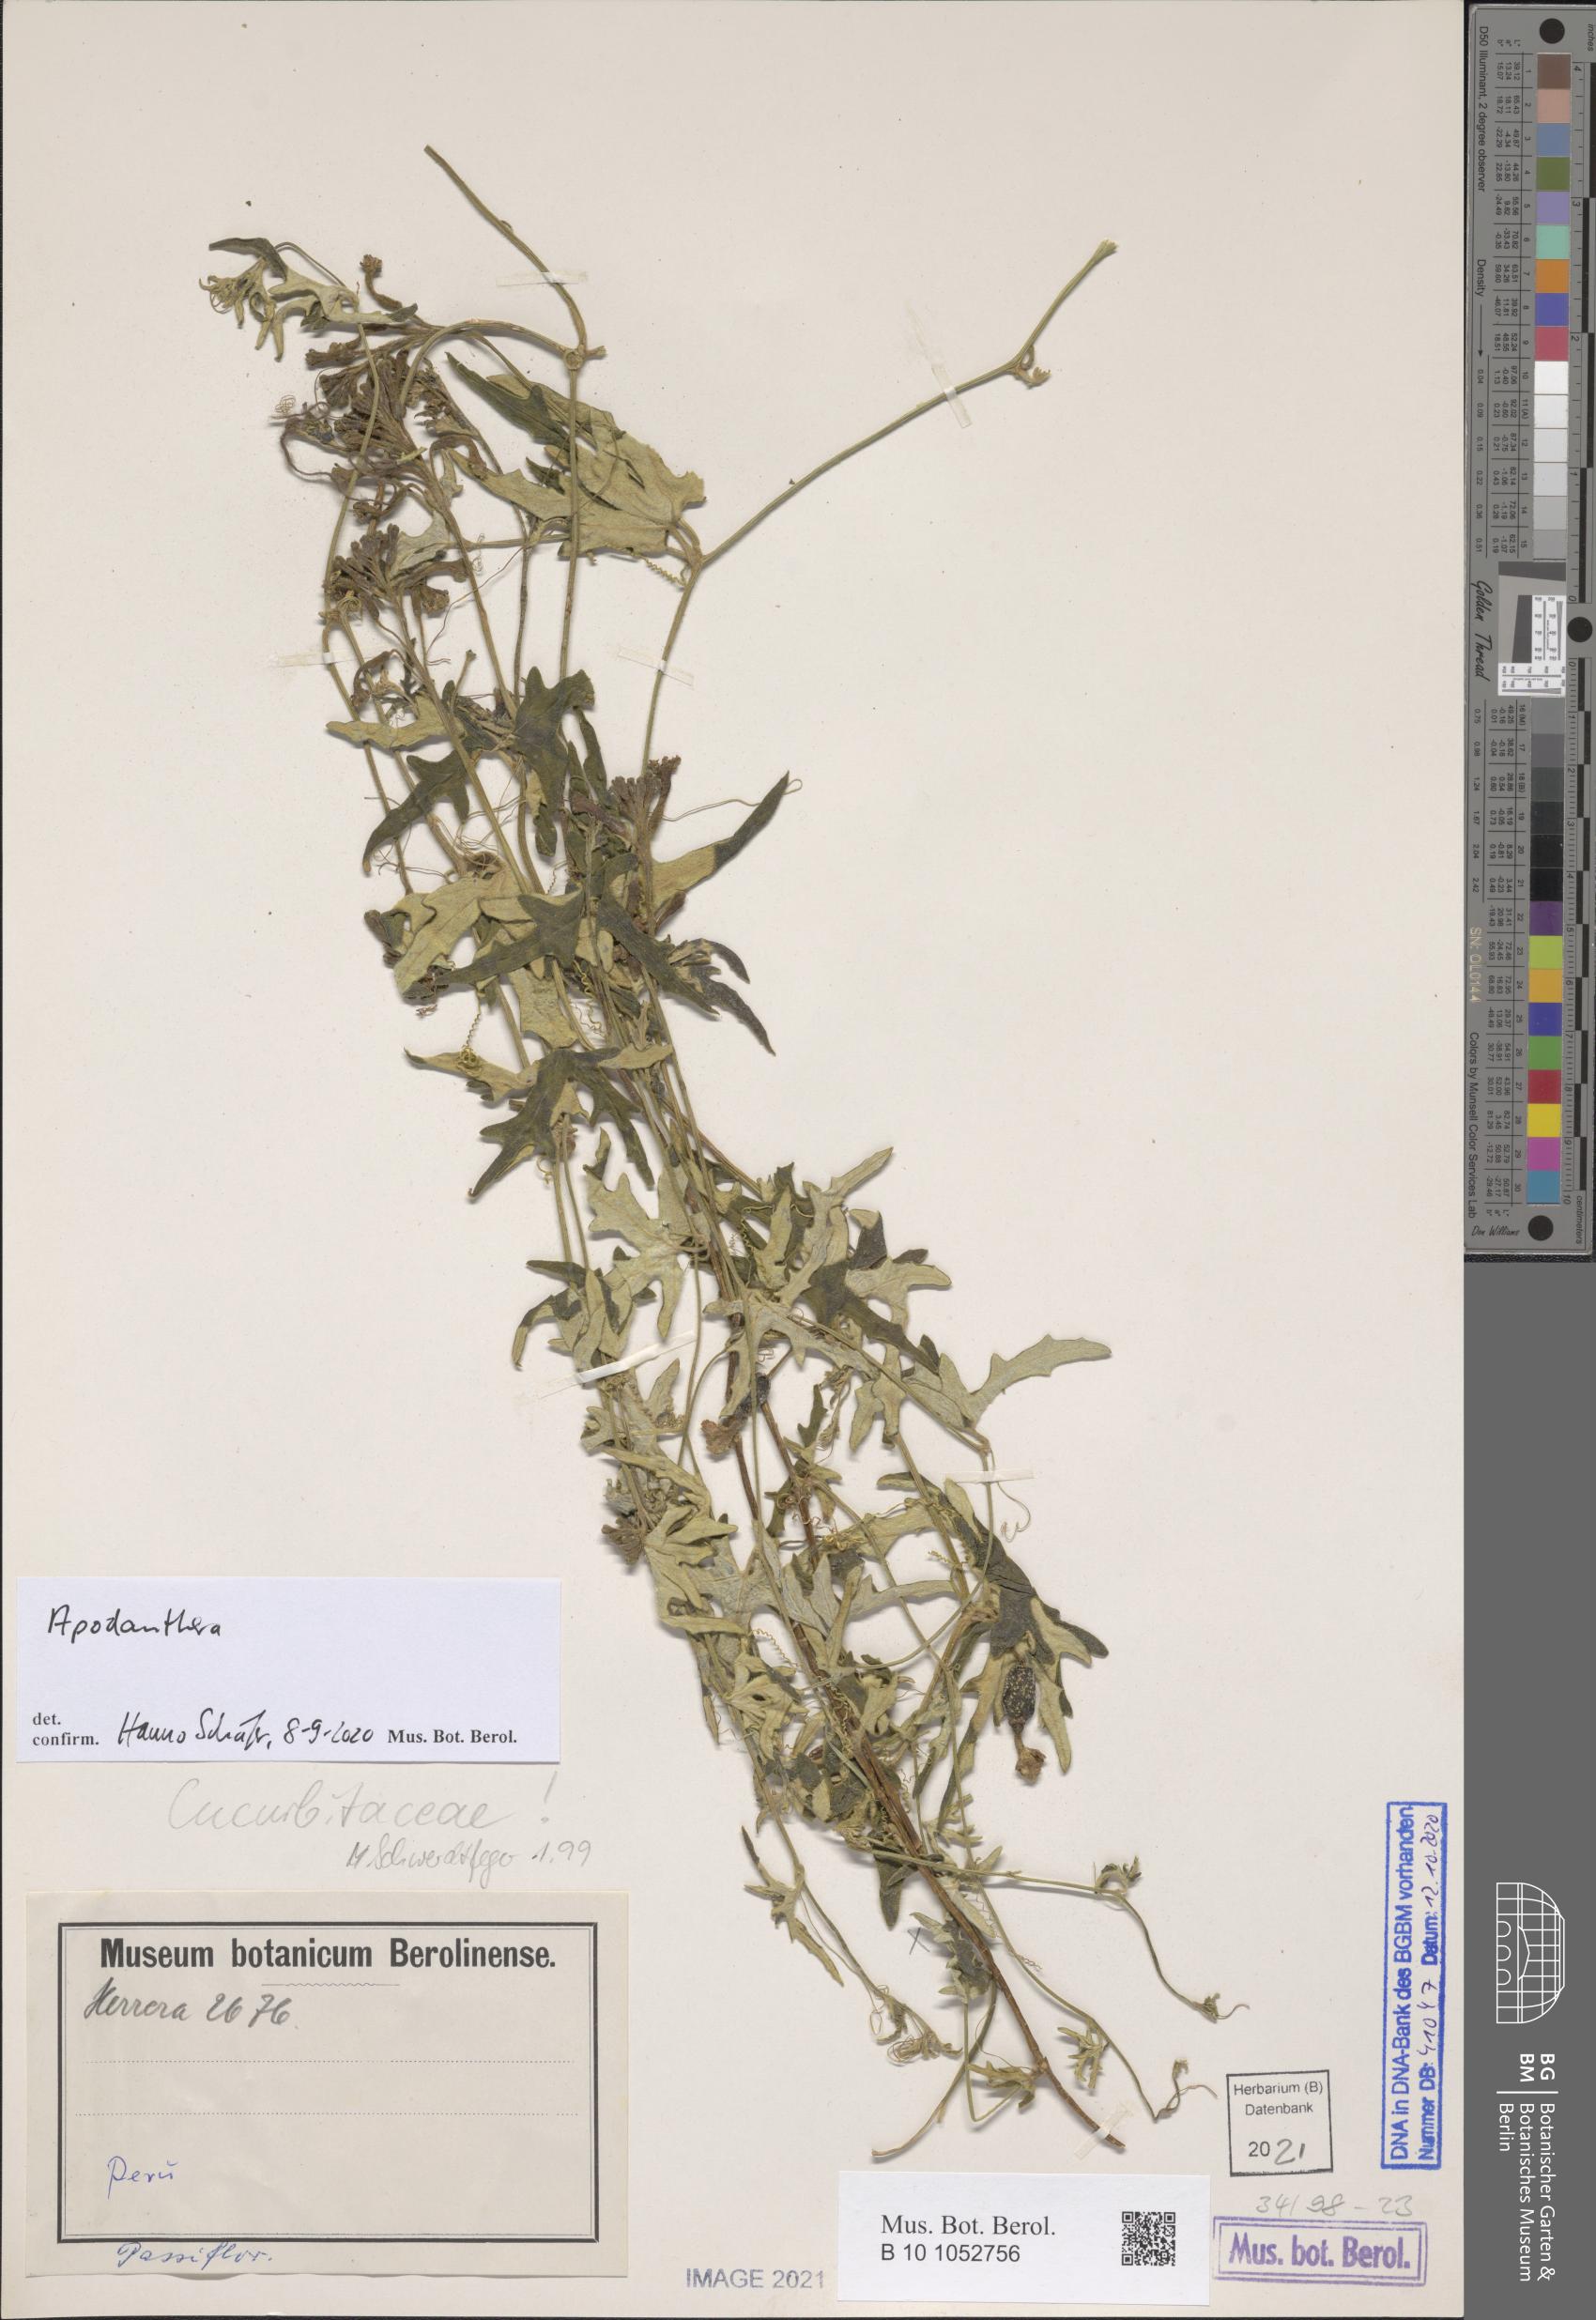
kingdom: Plantae
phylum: Tracheophyta
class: Magnoliopsida
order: Cucurbitales
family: Cucurbitaceae
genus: Apodanthera
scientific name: Apodanthera
